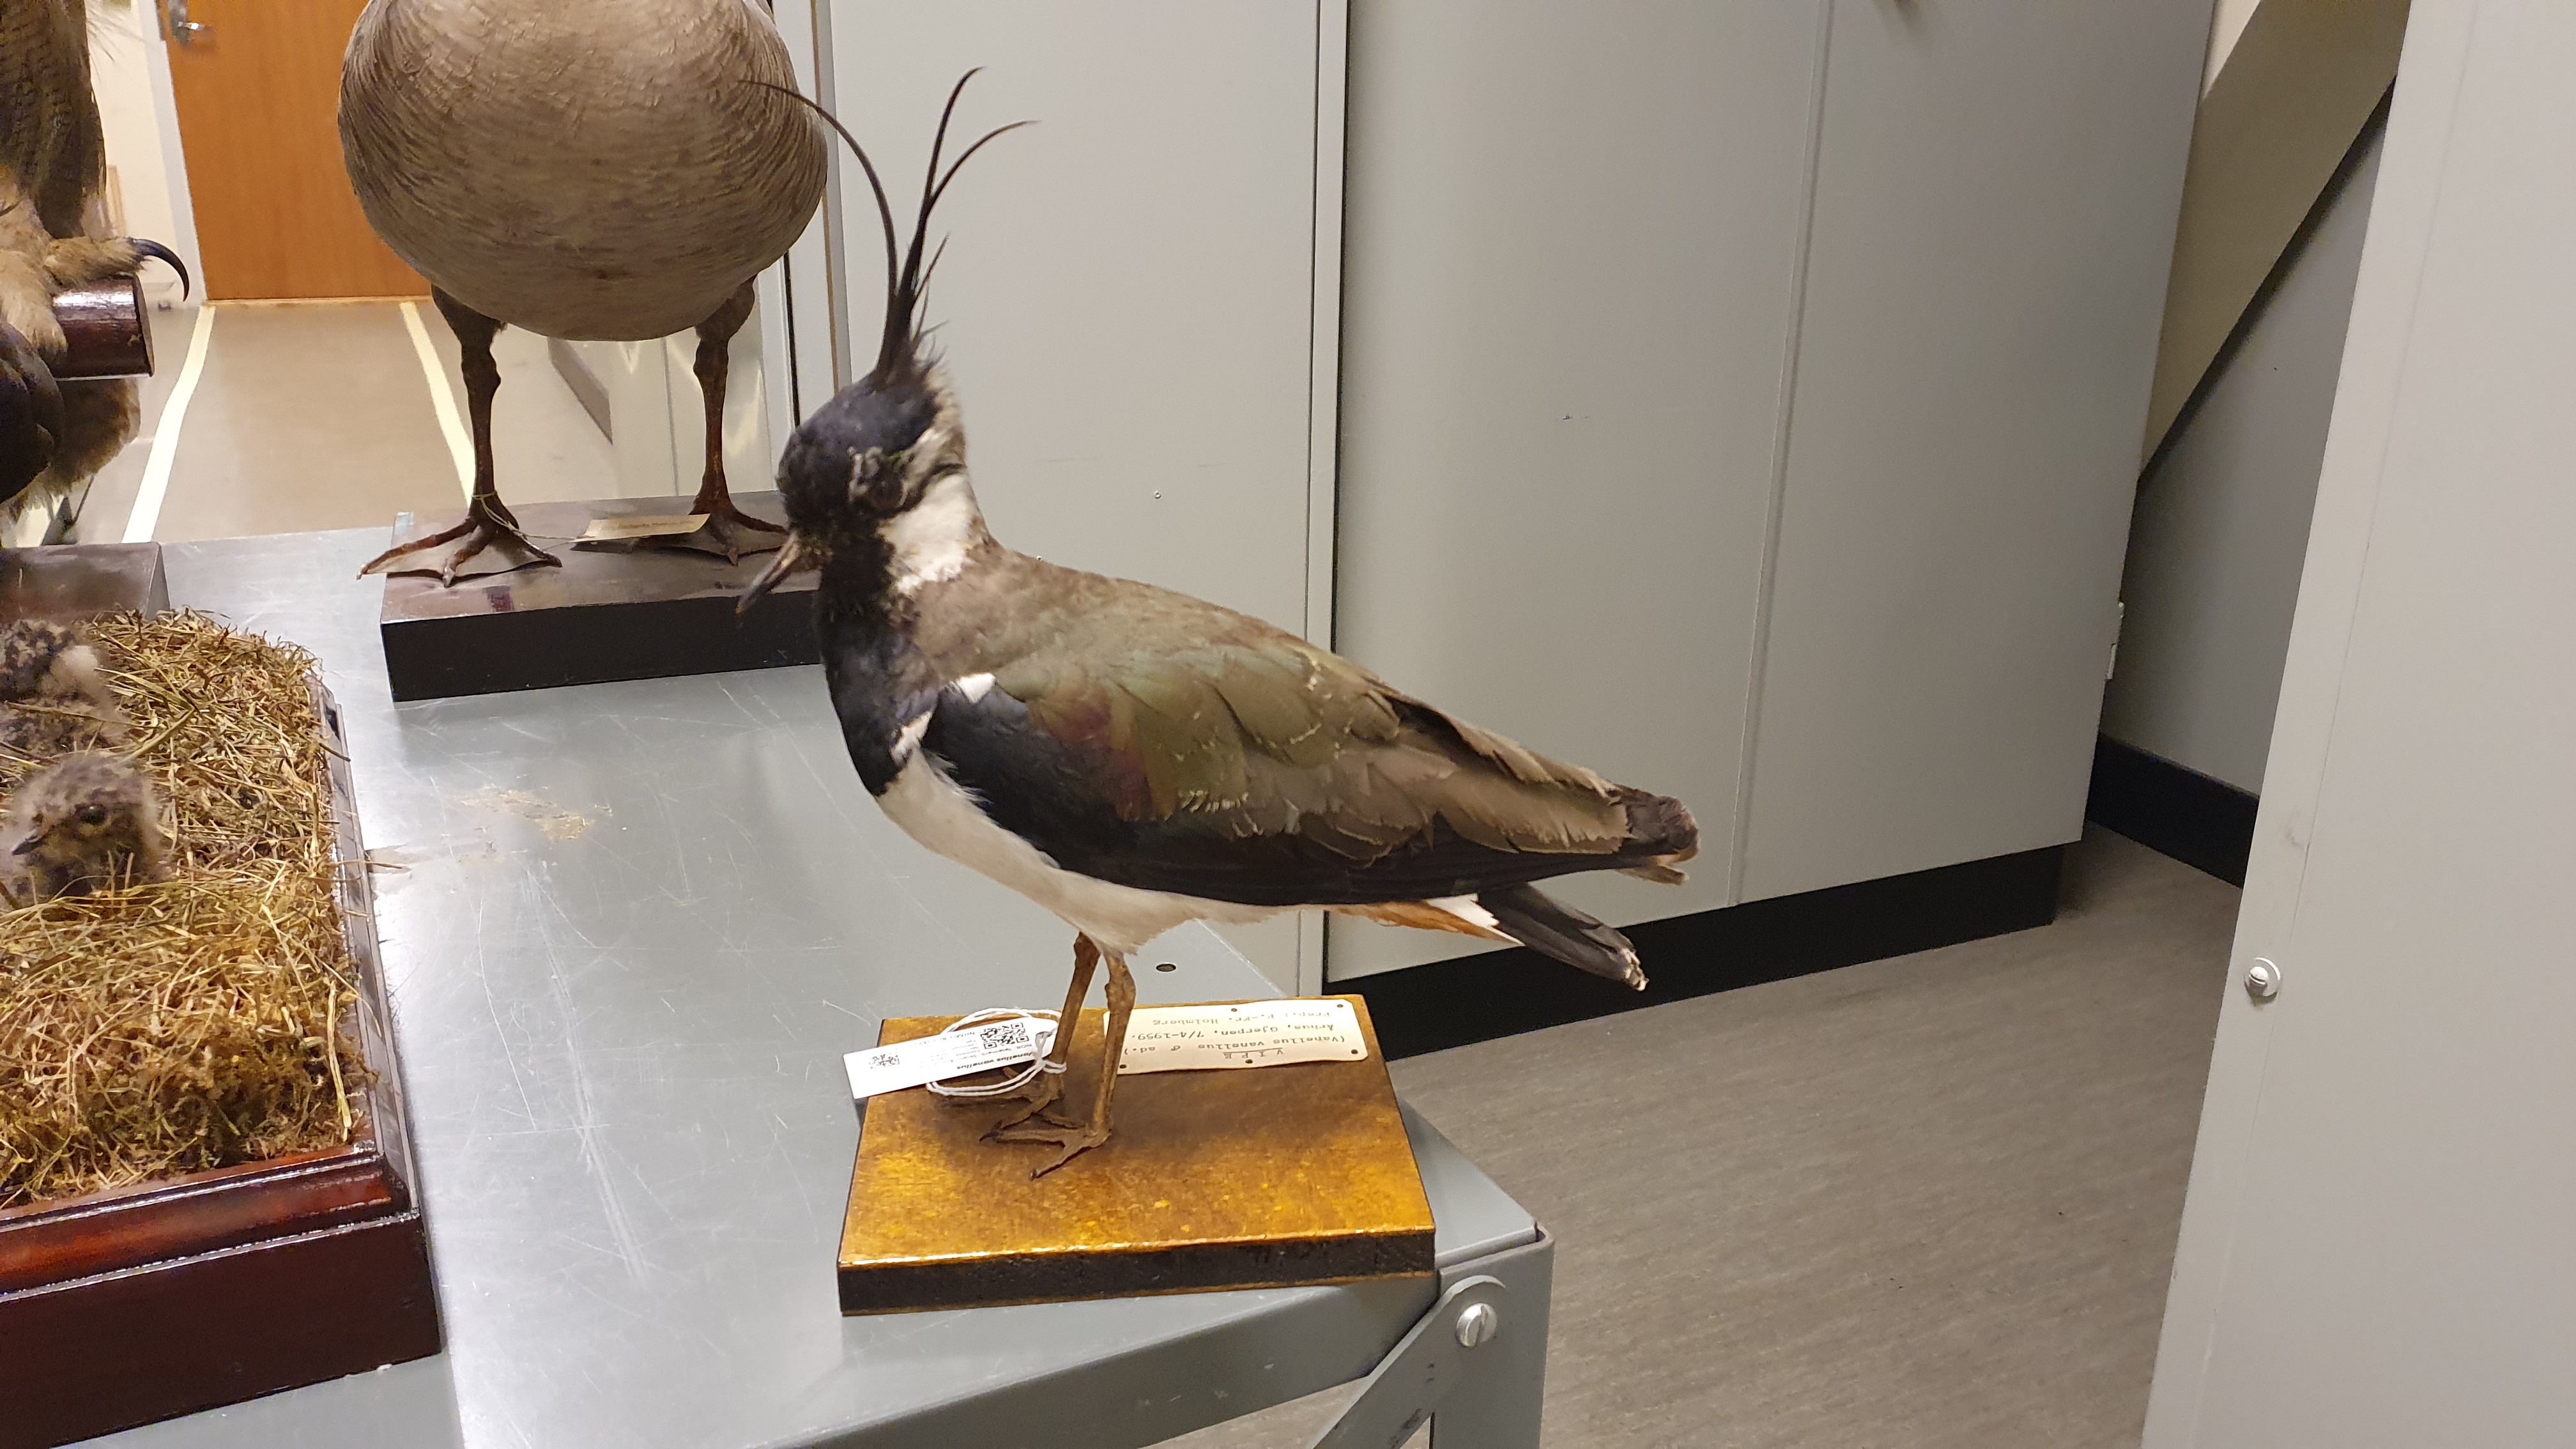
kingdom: Animalia
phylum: Chordata
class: Aves
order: Charadriiformes
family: Charadriidae
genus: Vanellus
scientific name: Vanellus vanellus
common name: Northern lapwing
